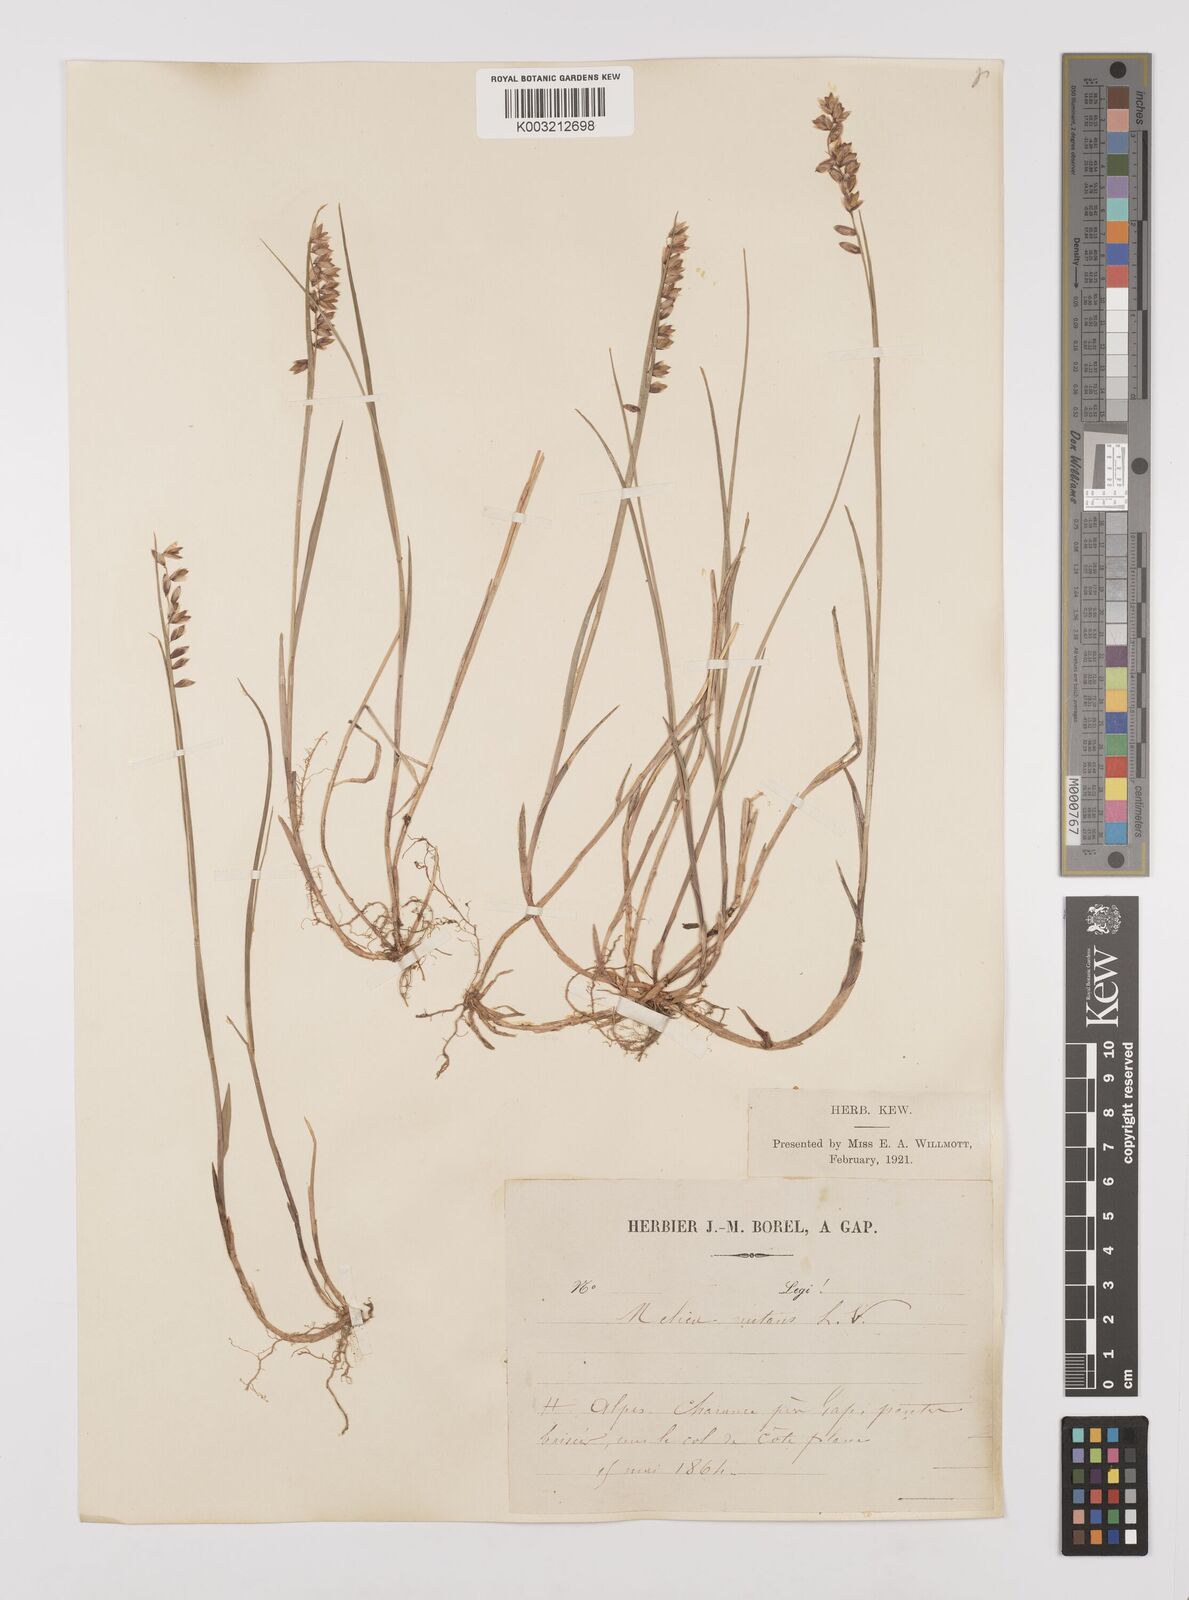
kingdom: Plantae
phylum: Tracheophyta
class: Liliopsida
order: Poales
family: Poaceae
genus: Melica
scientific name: Melica nutans
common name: Mountain melick
